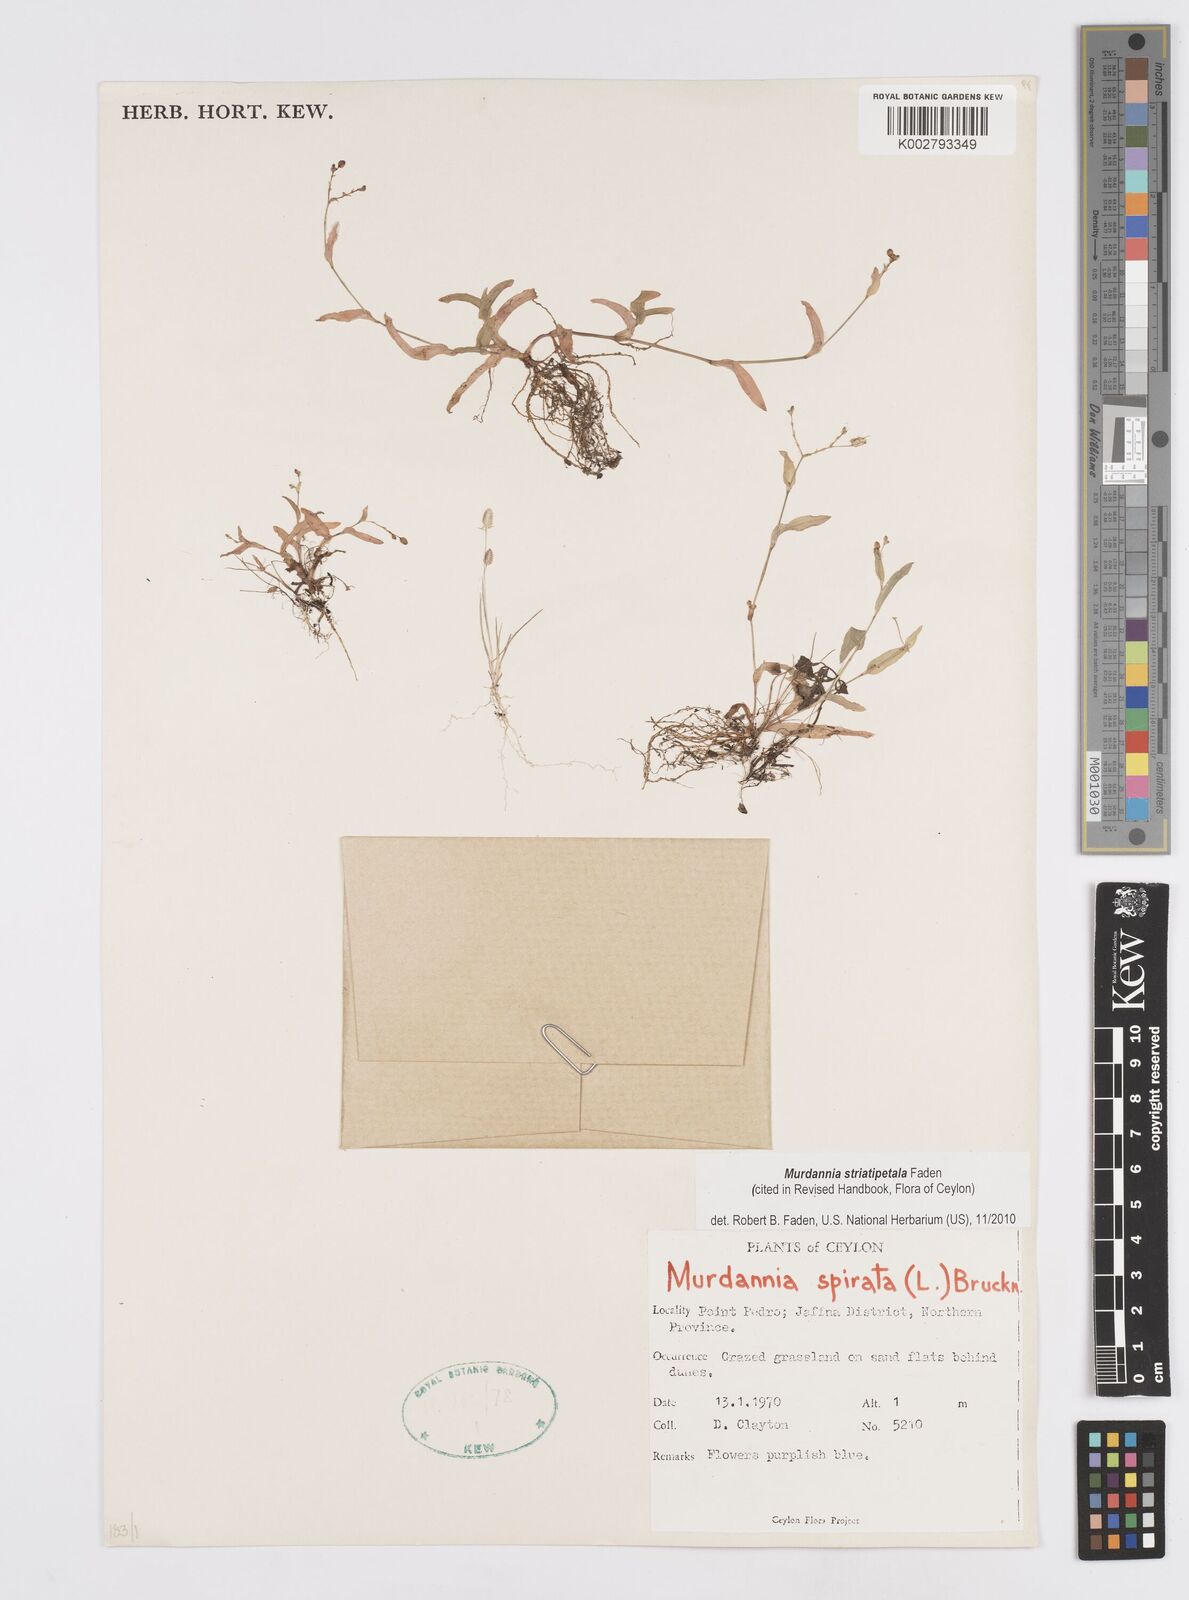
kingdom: Plantae
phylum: Tracheophyta
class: Liliopsida
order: Commelinales
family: Commelinaceae
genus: Murdannia
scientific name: Murdannia striatipetala
